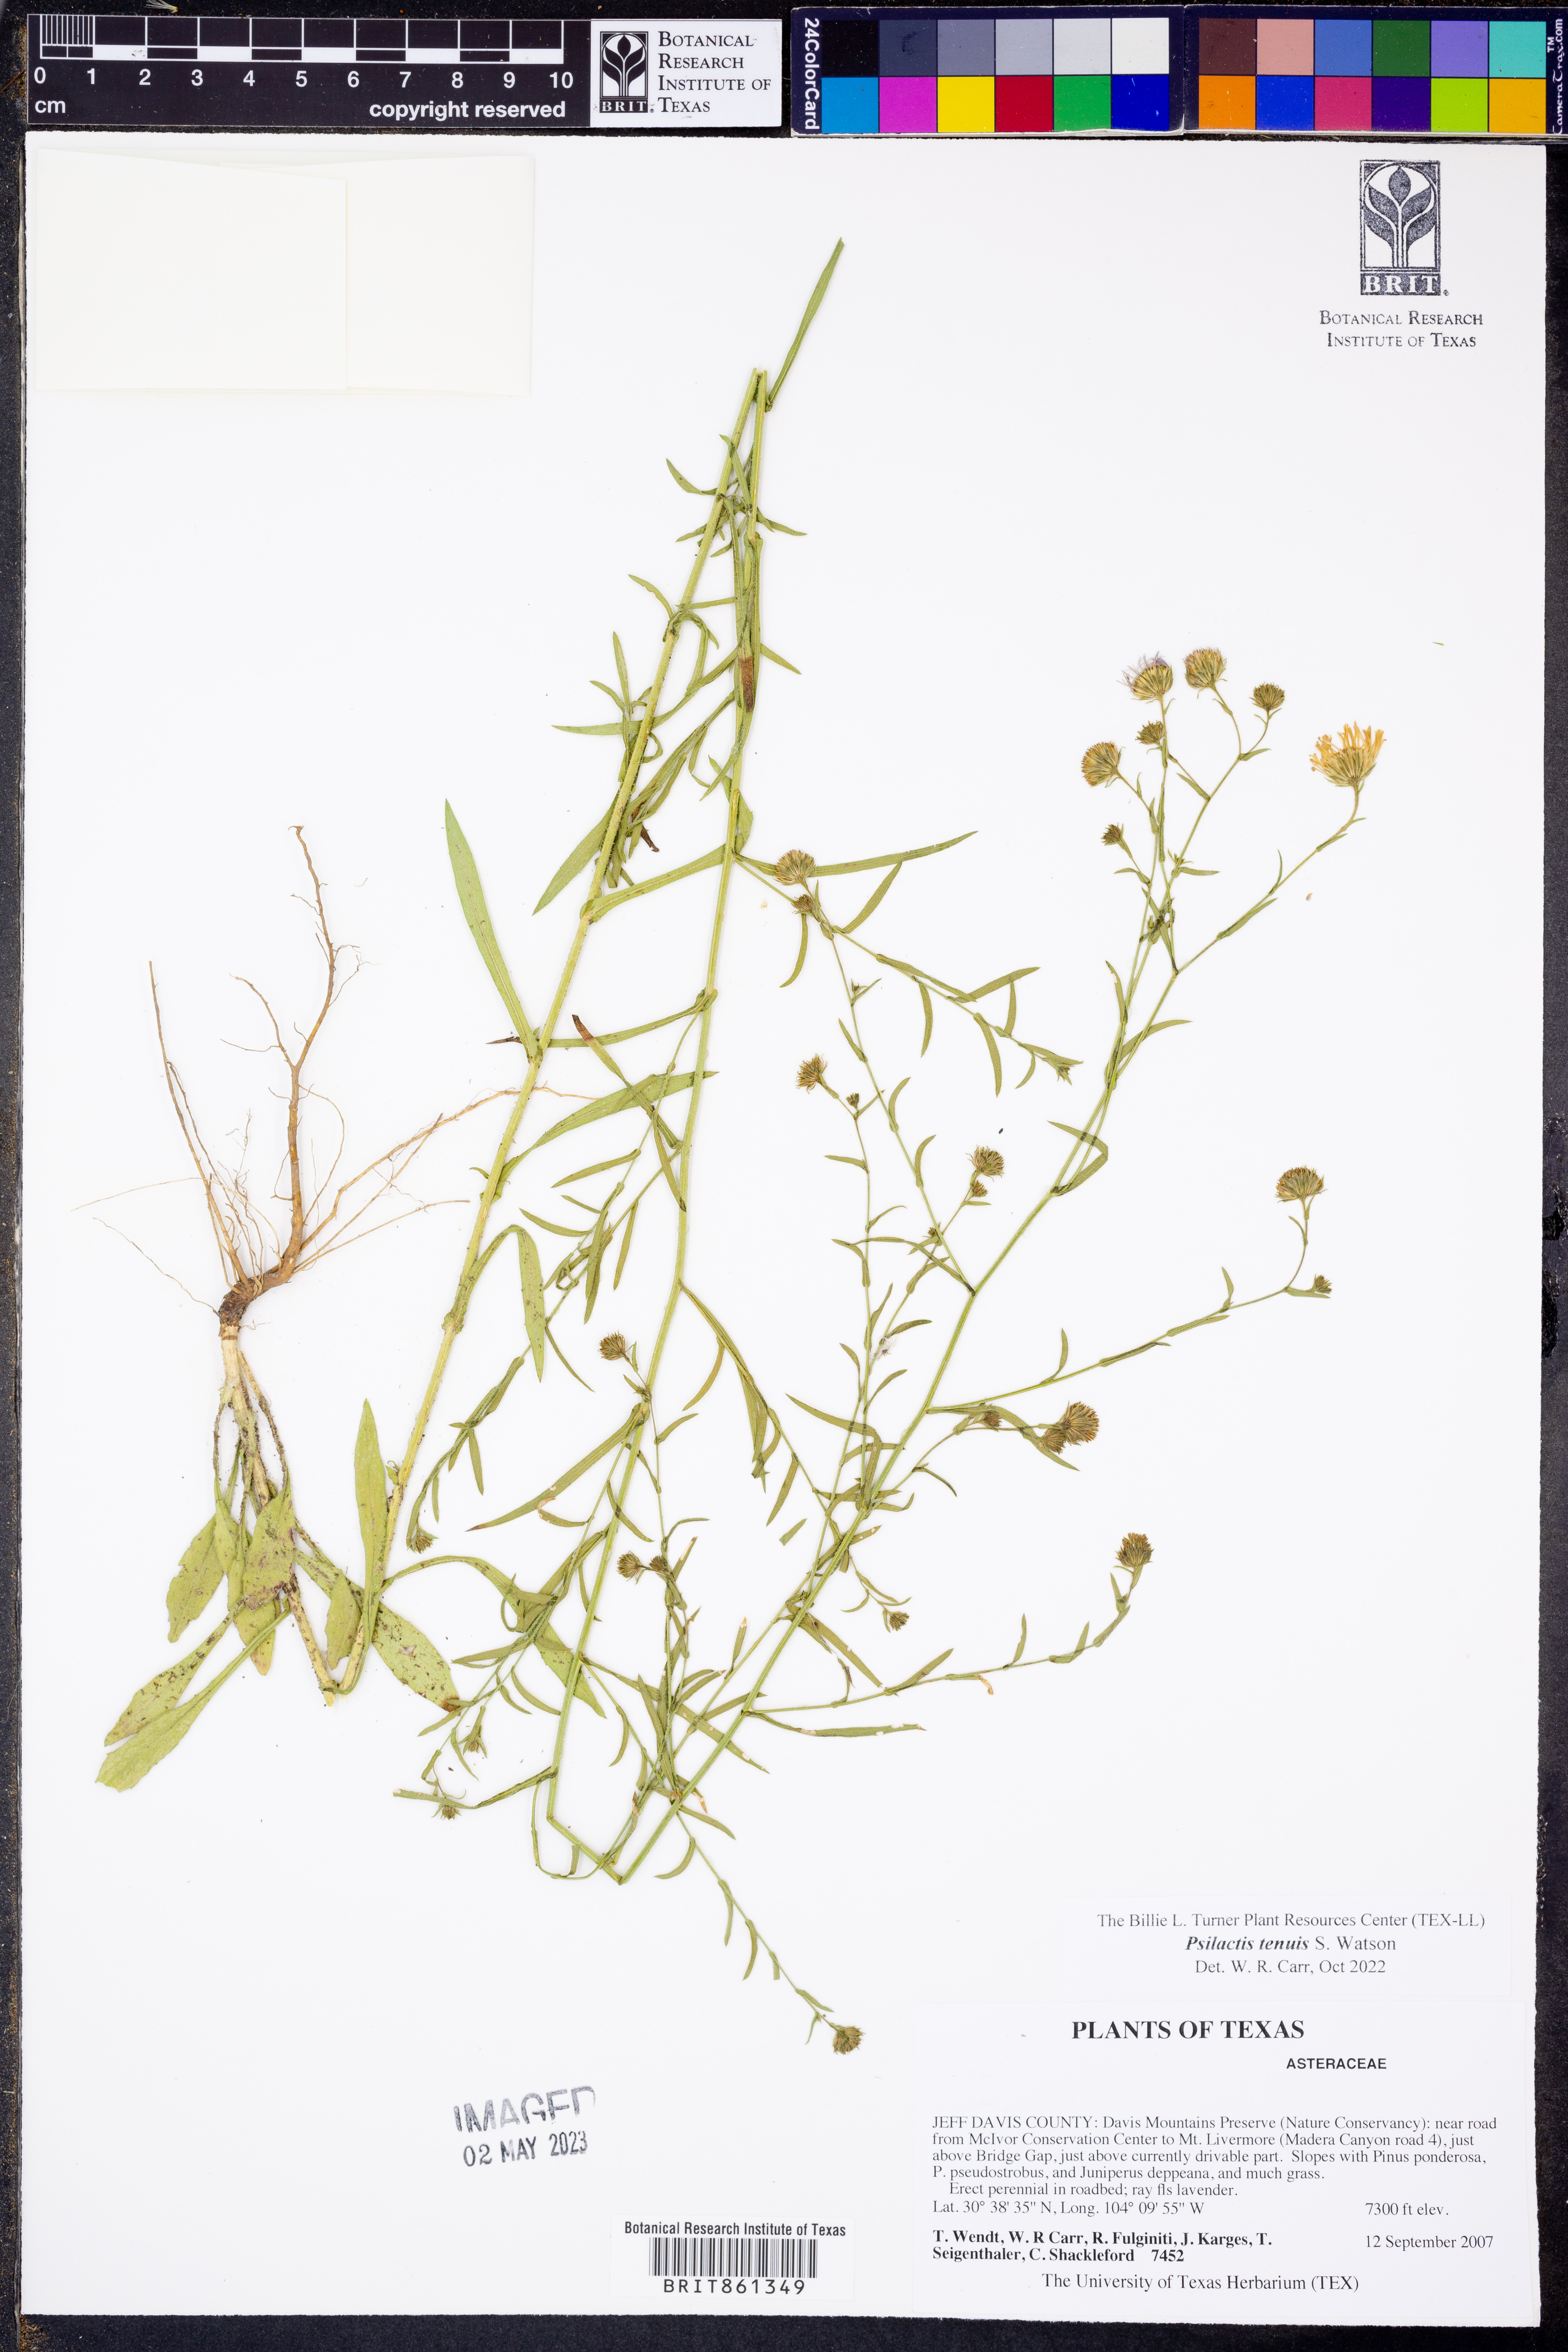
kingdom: Plantae
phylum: Tracheophyta
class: Magnoliopsida
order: Asterales
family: Asteraceae
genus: Psilactis
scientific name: Psilactis tenuis
